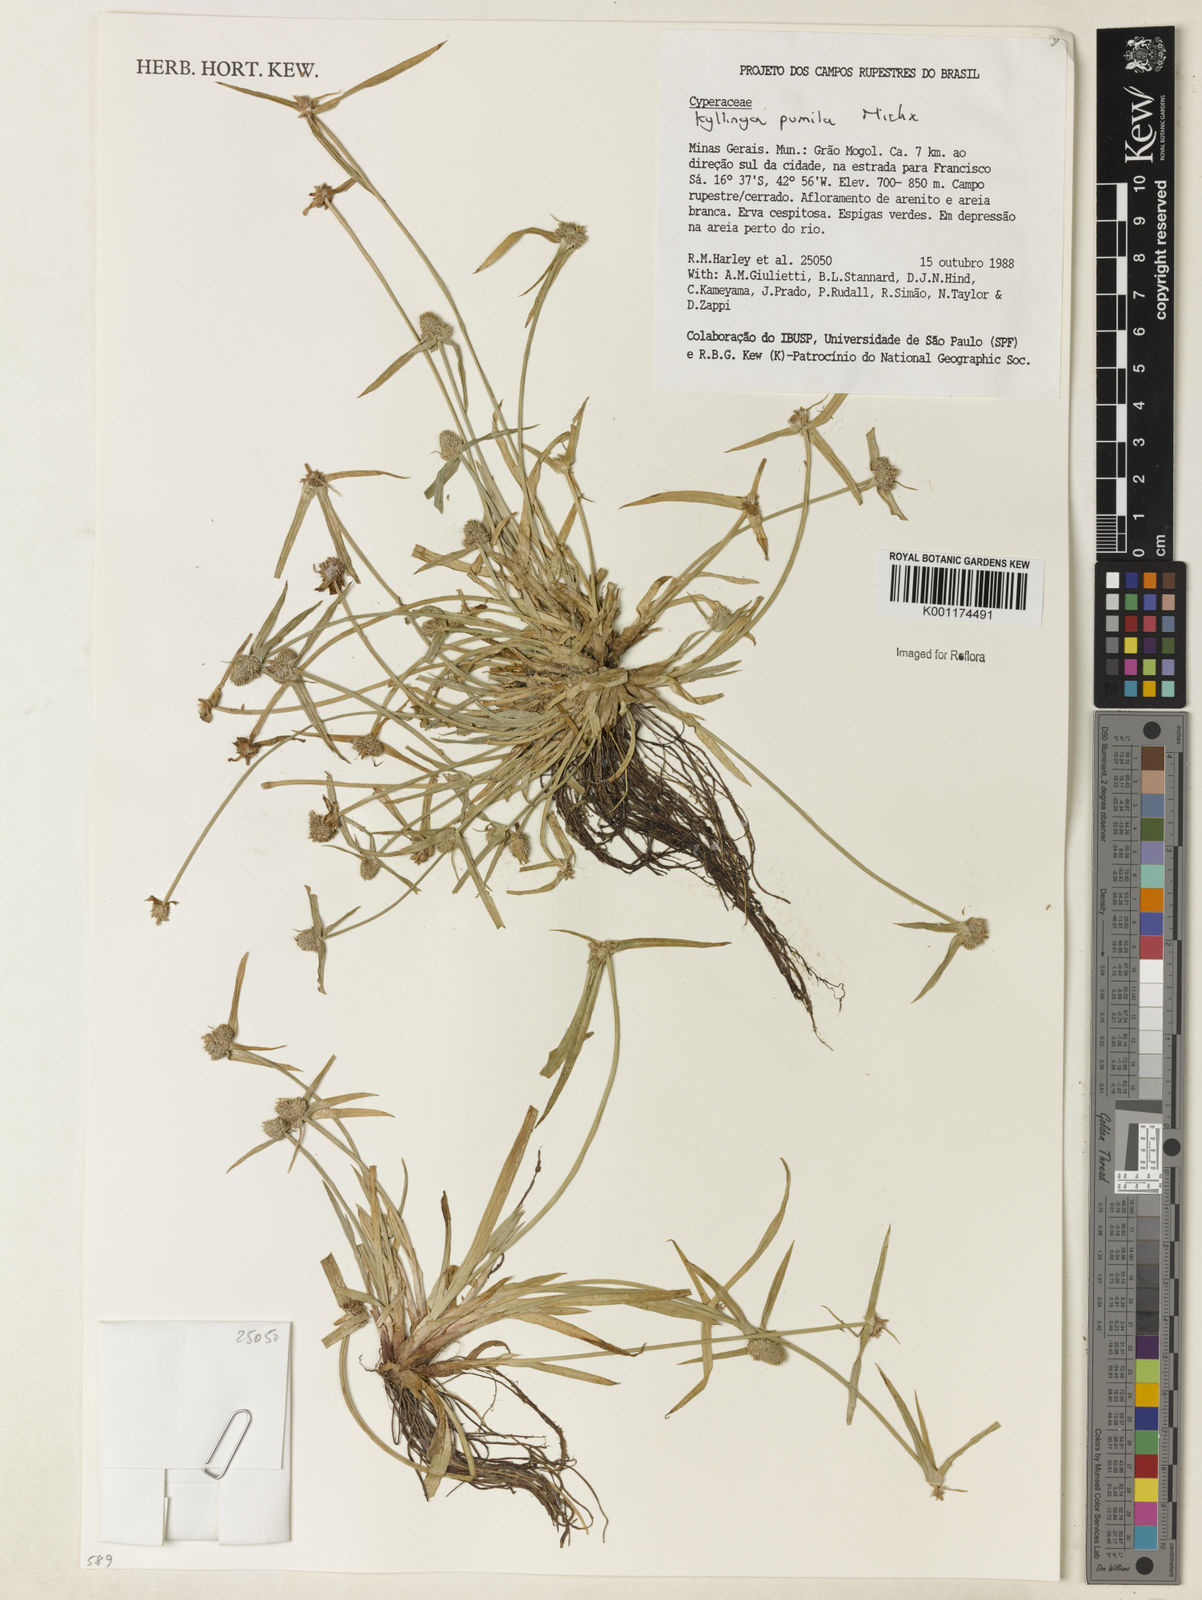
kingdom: Plantae
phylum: Tracheophyta
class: Liliopsida
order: Poales
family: Cyperaceae
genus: Cyperus
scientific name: Cyperus
